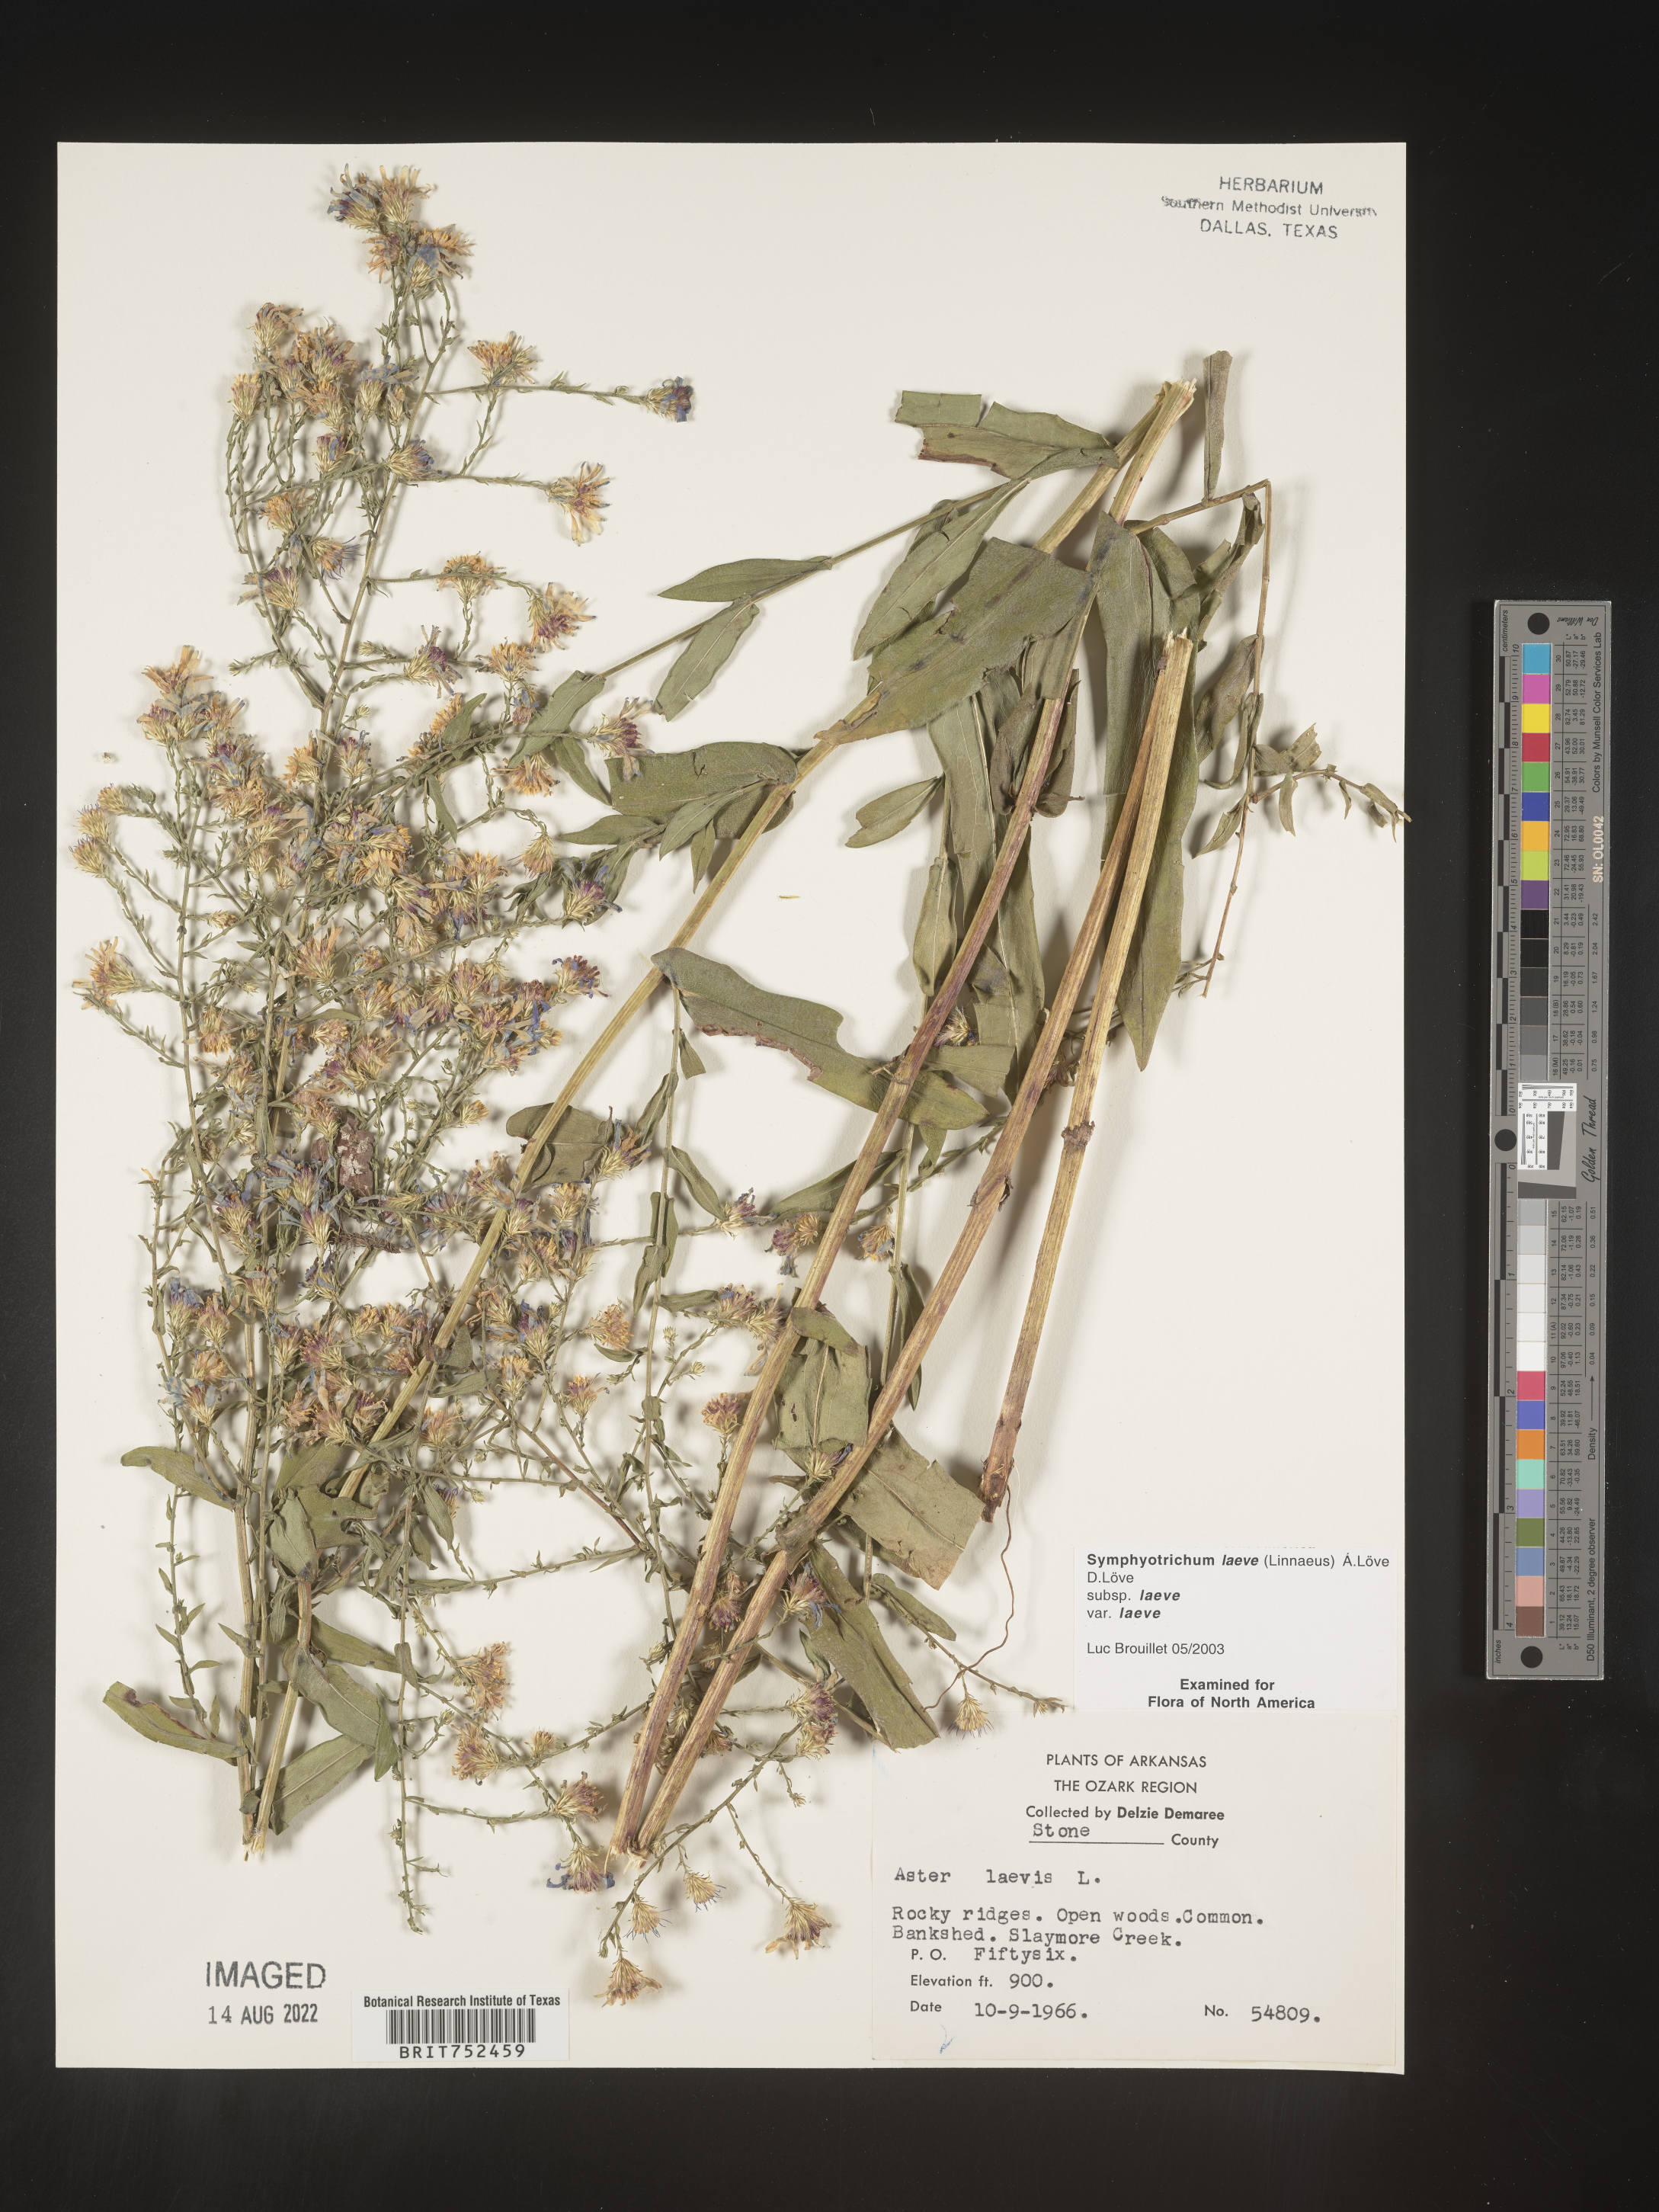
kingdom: Plantae
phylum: Tracheophyta
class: Magnoliopsida
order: Asterales
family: Asteraceae
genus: Symphyotrichum
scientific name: Symphyotrichum laeve
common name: Glaucous aster
